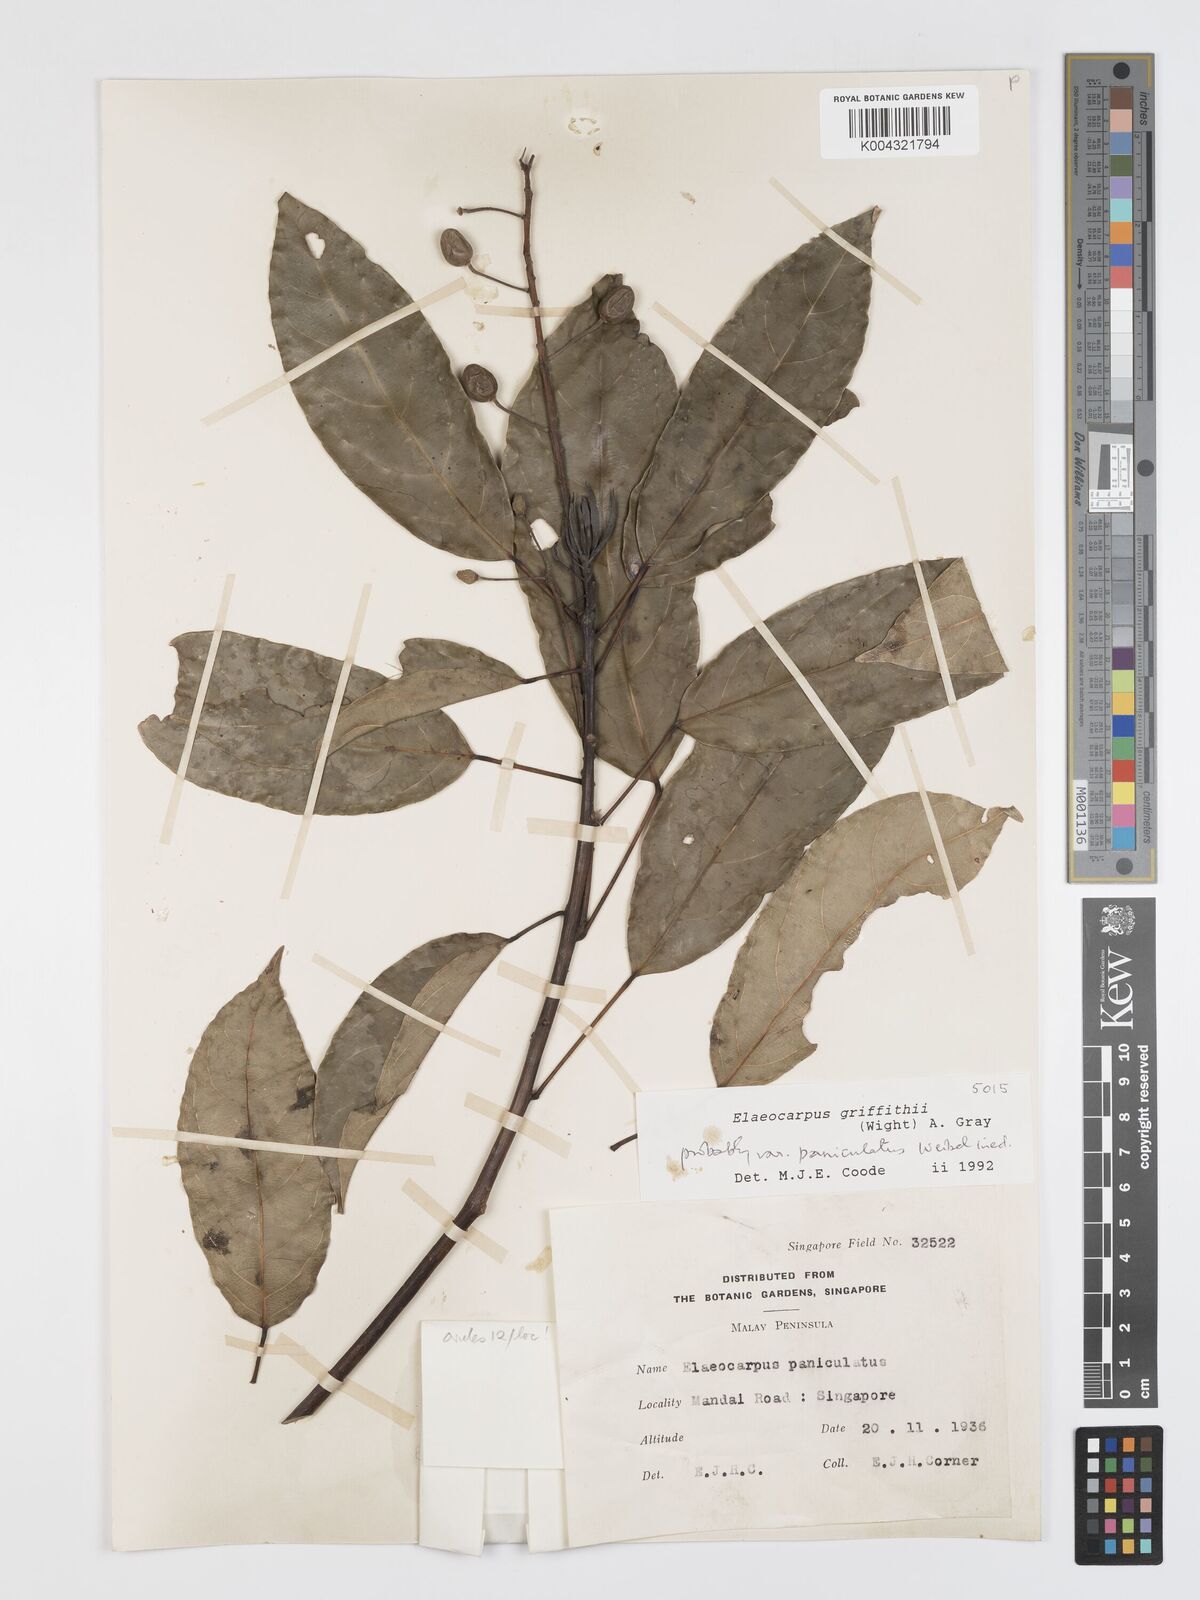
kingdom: Plantae
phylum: Tracheophyta
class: Magnoliopsida
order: Oxalidales
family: Elaeocarpaceae
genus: Elaeocarpus
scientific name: Elaeocarpus griffithii
